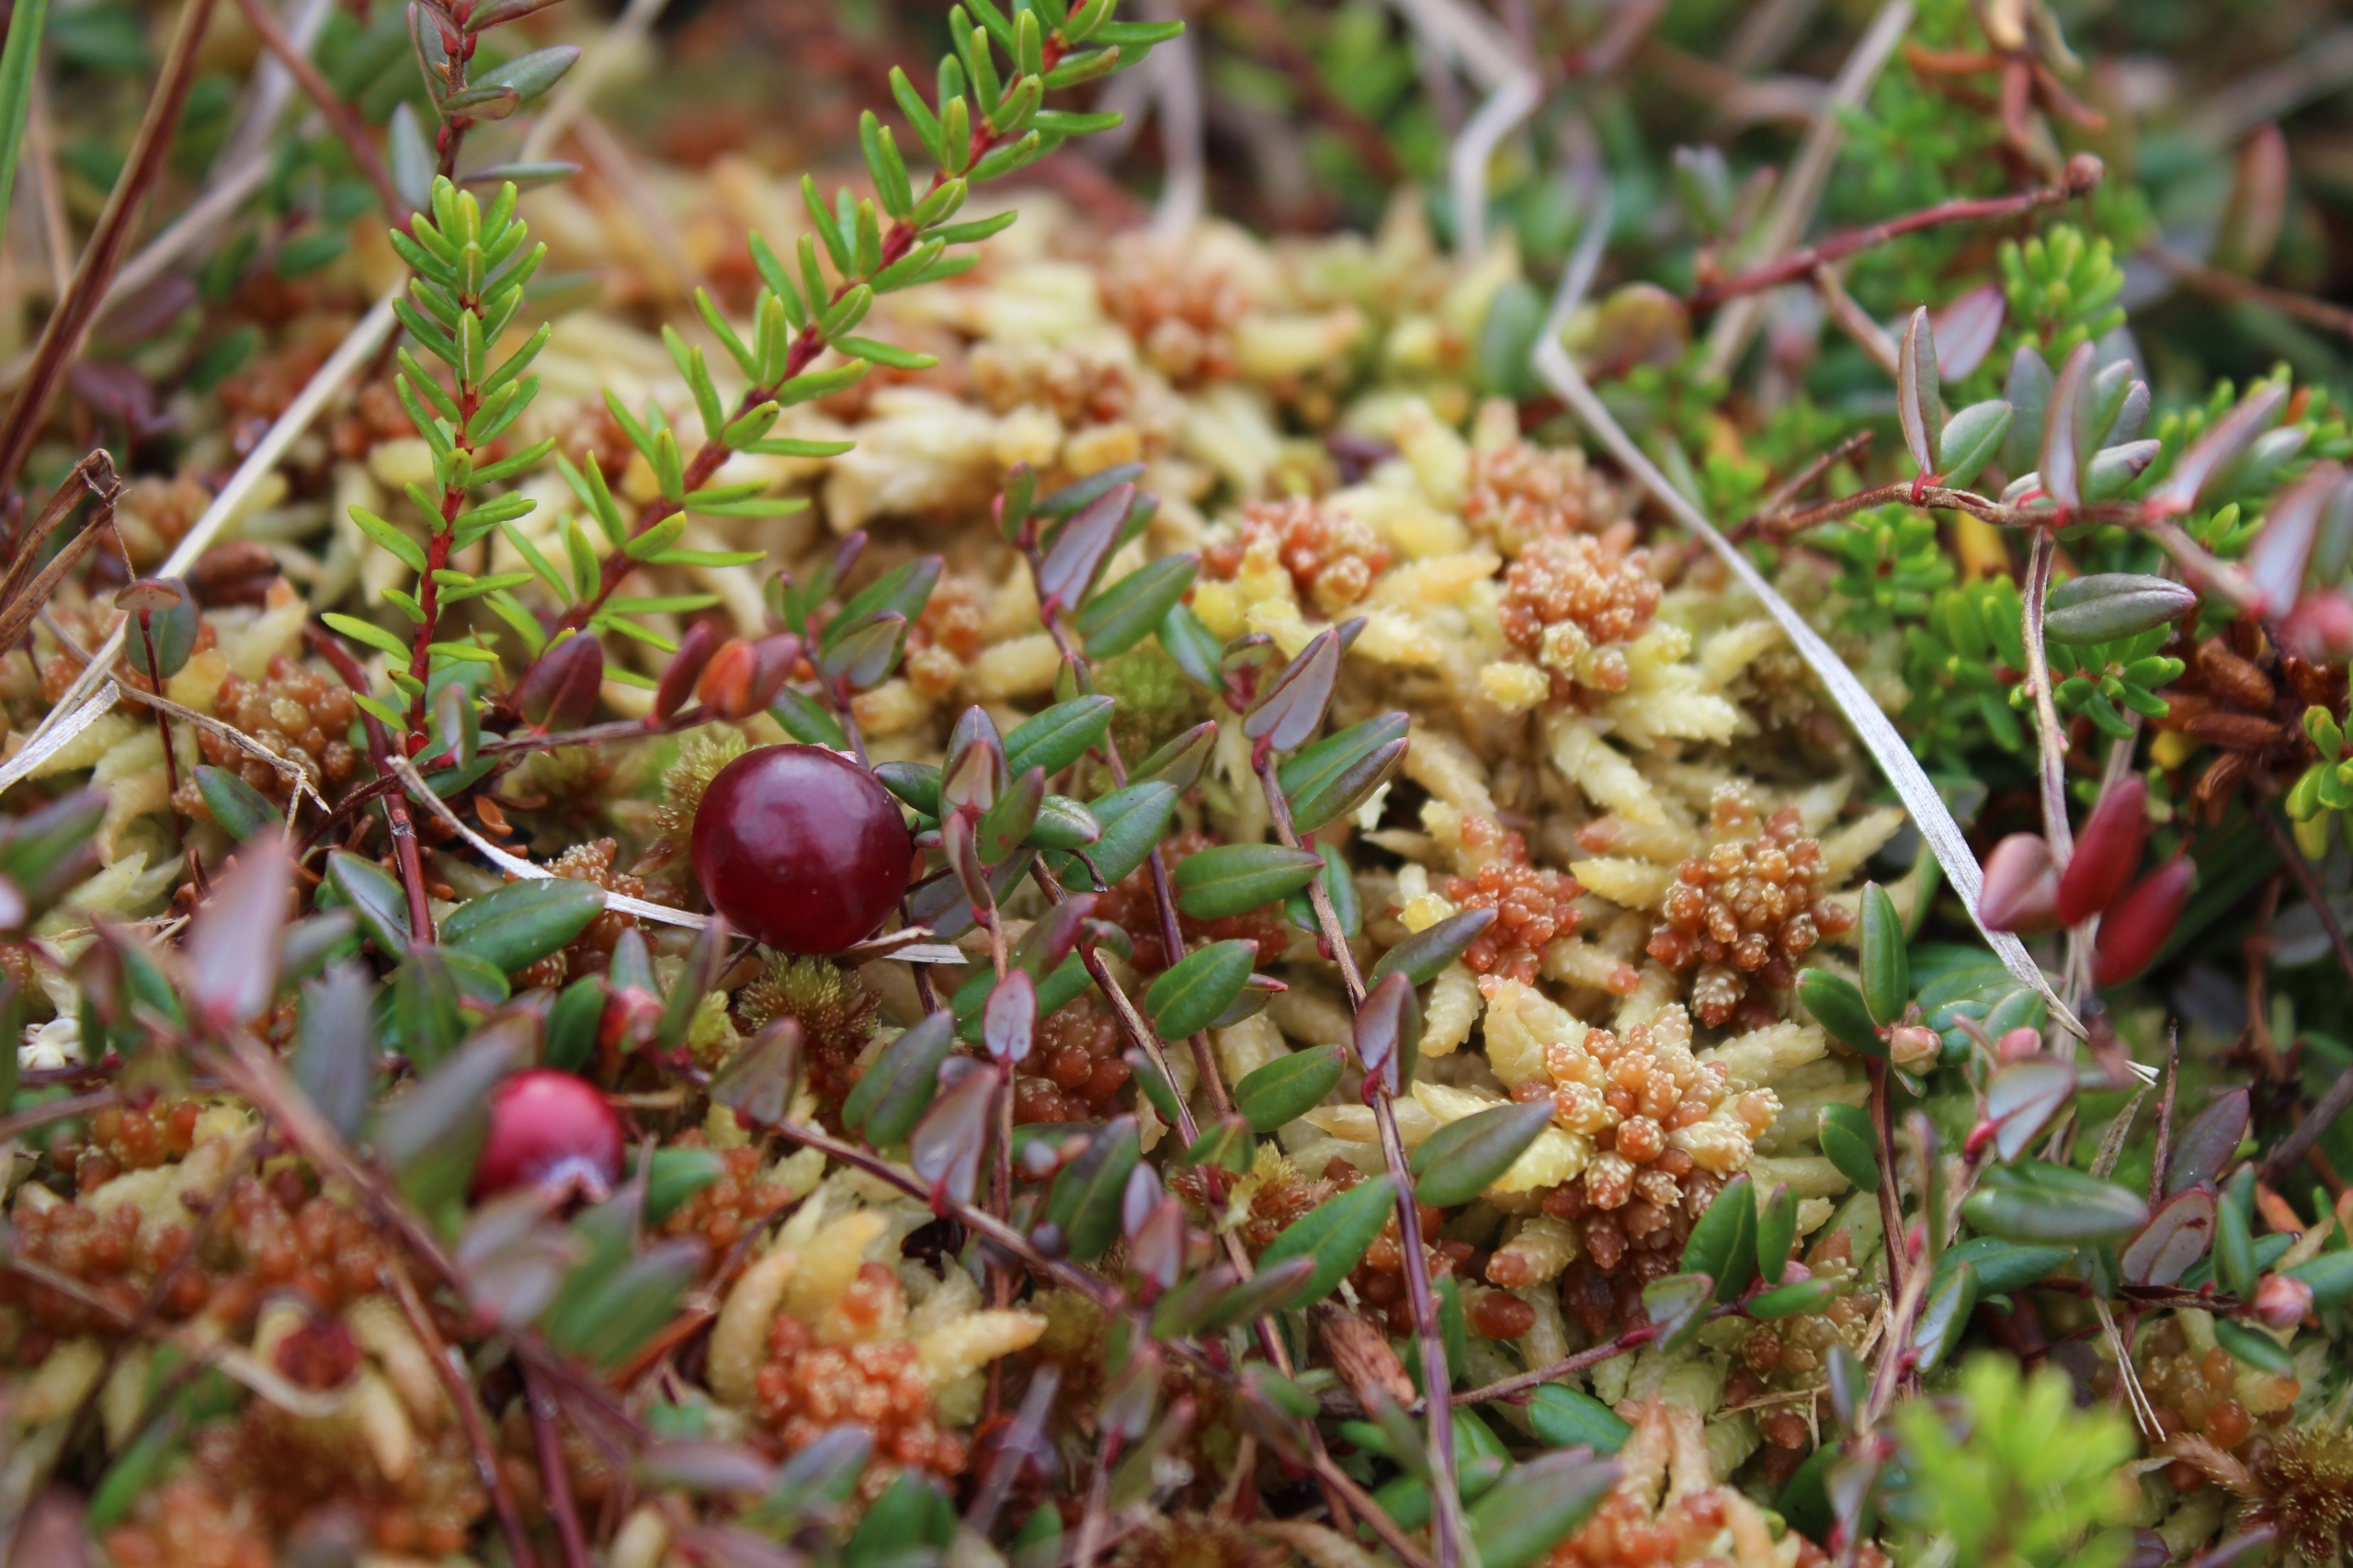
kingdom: Plantae
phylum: Tracheophyta
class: Magnoliopsida
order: Ericales
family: Ericaceae
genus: Vaccinium
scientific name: Vaccinium oxycoccos
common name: Tranebær
